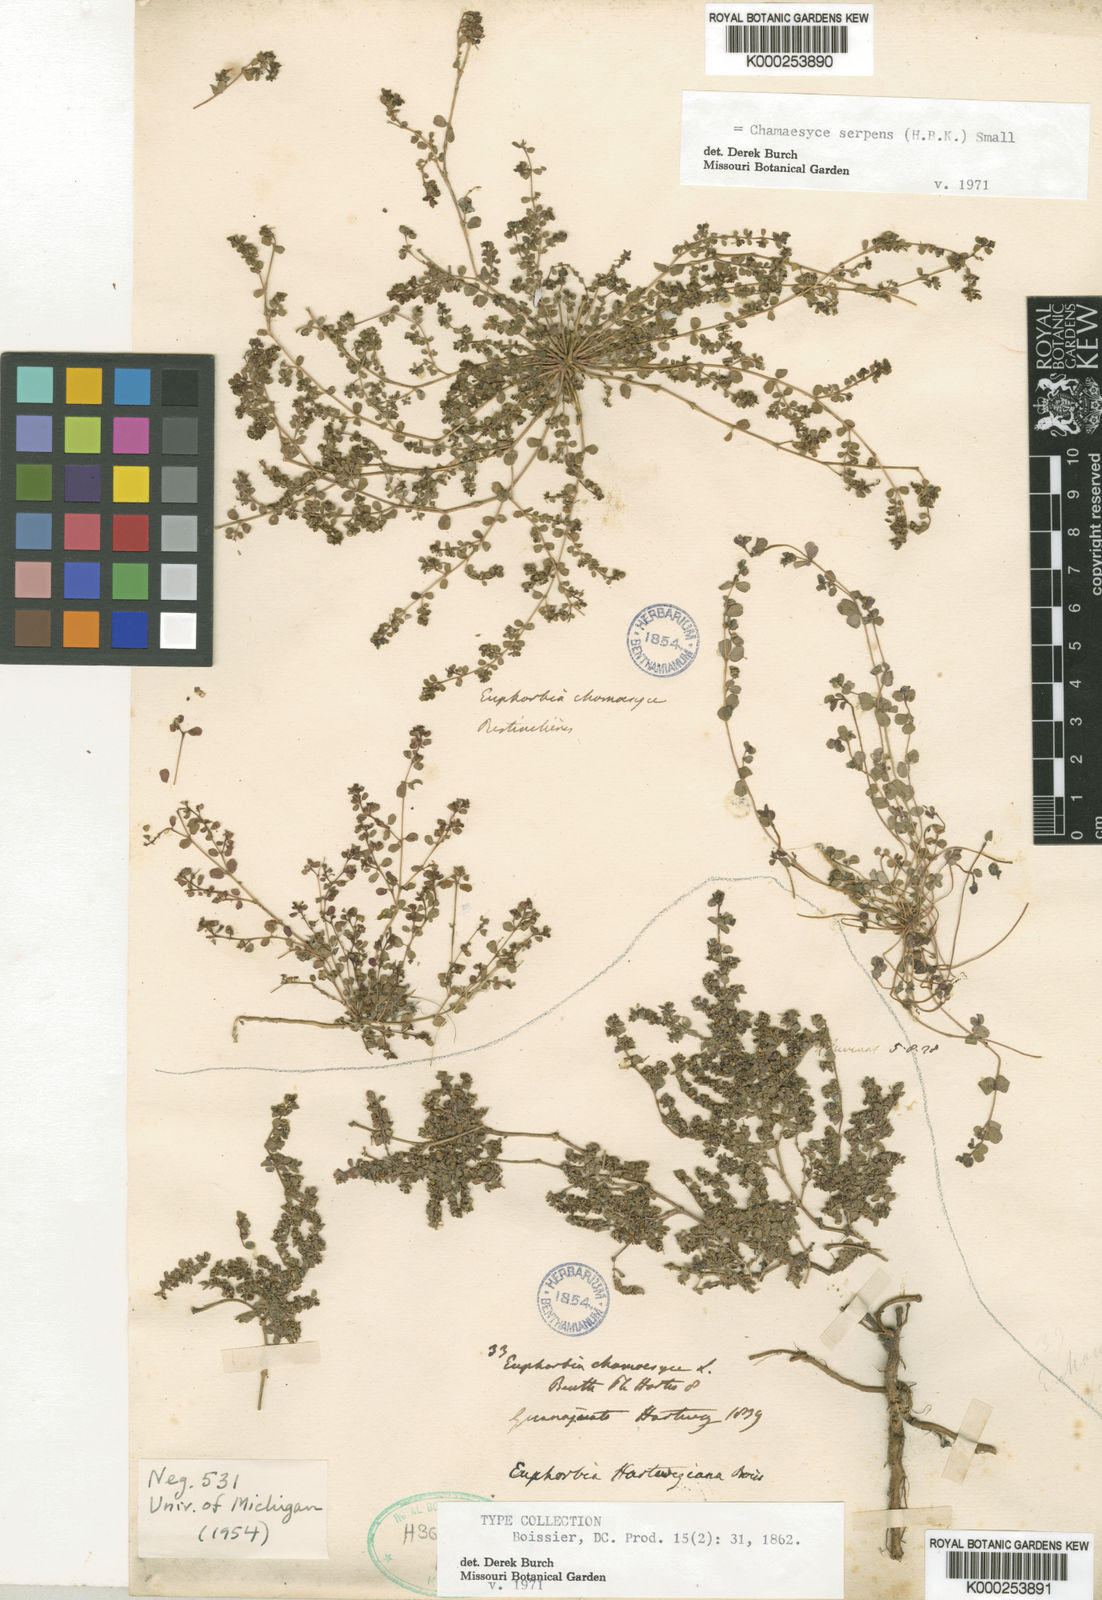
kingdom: Plantae
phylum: Tracheophyta
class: Magnoliopsida
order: Malpighiales
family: Euphorbiaceae
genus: Euphorbia
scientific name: Euphorbia albomarginata
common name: Whitemargin sandmat
